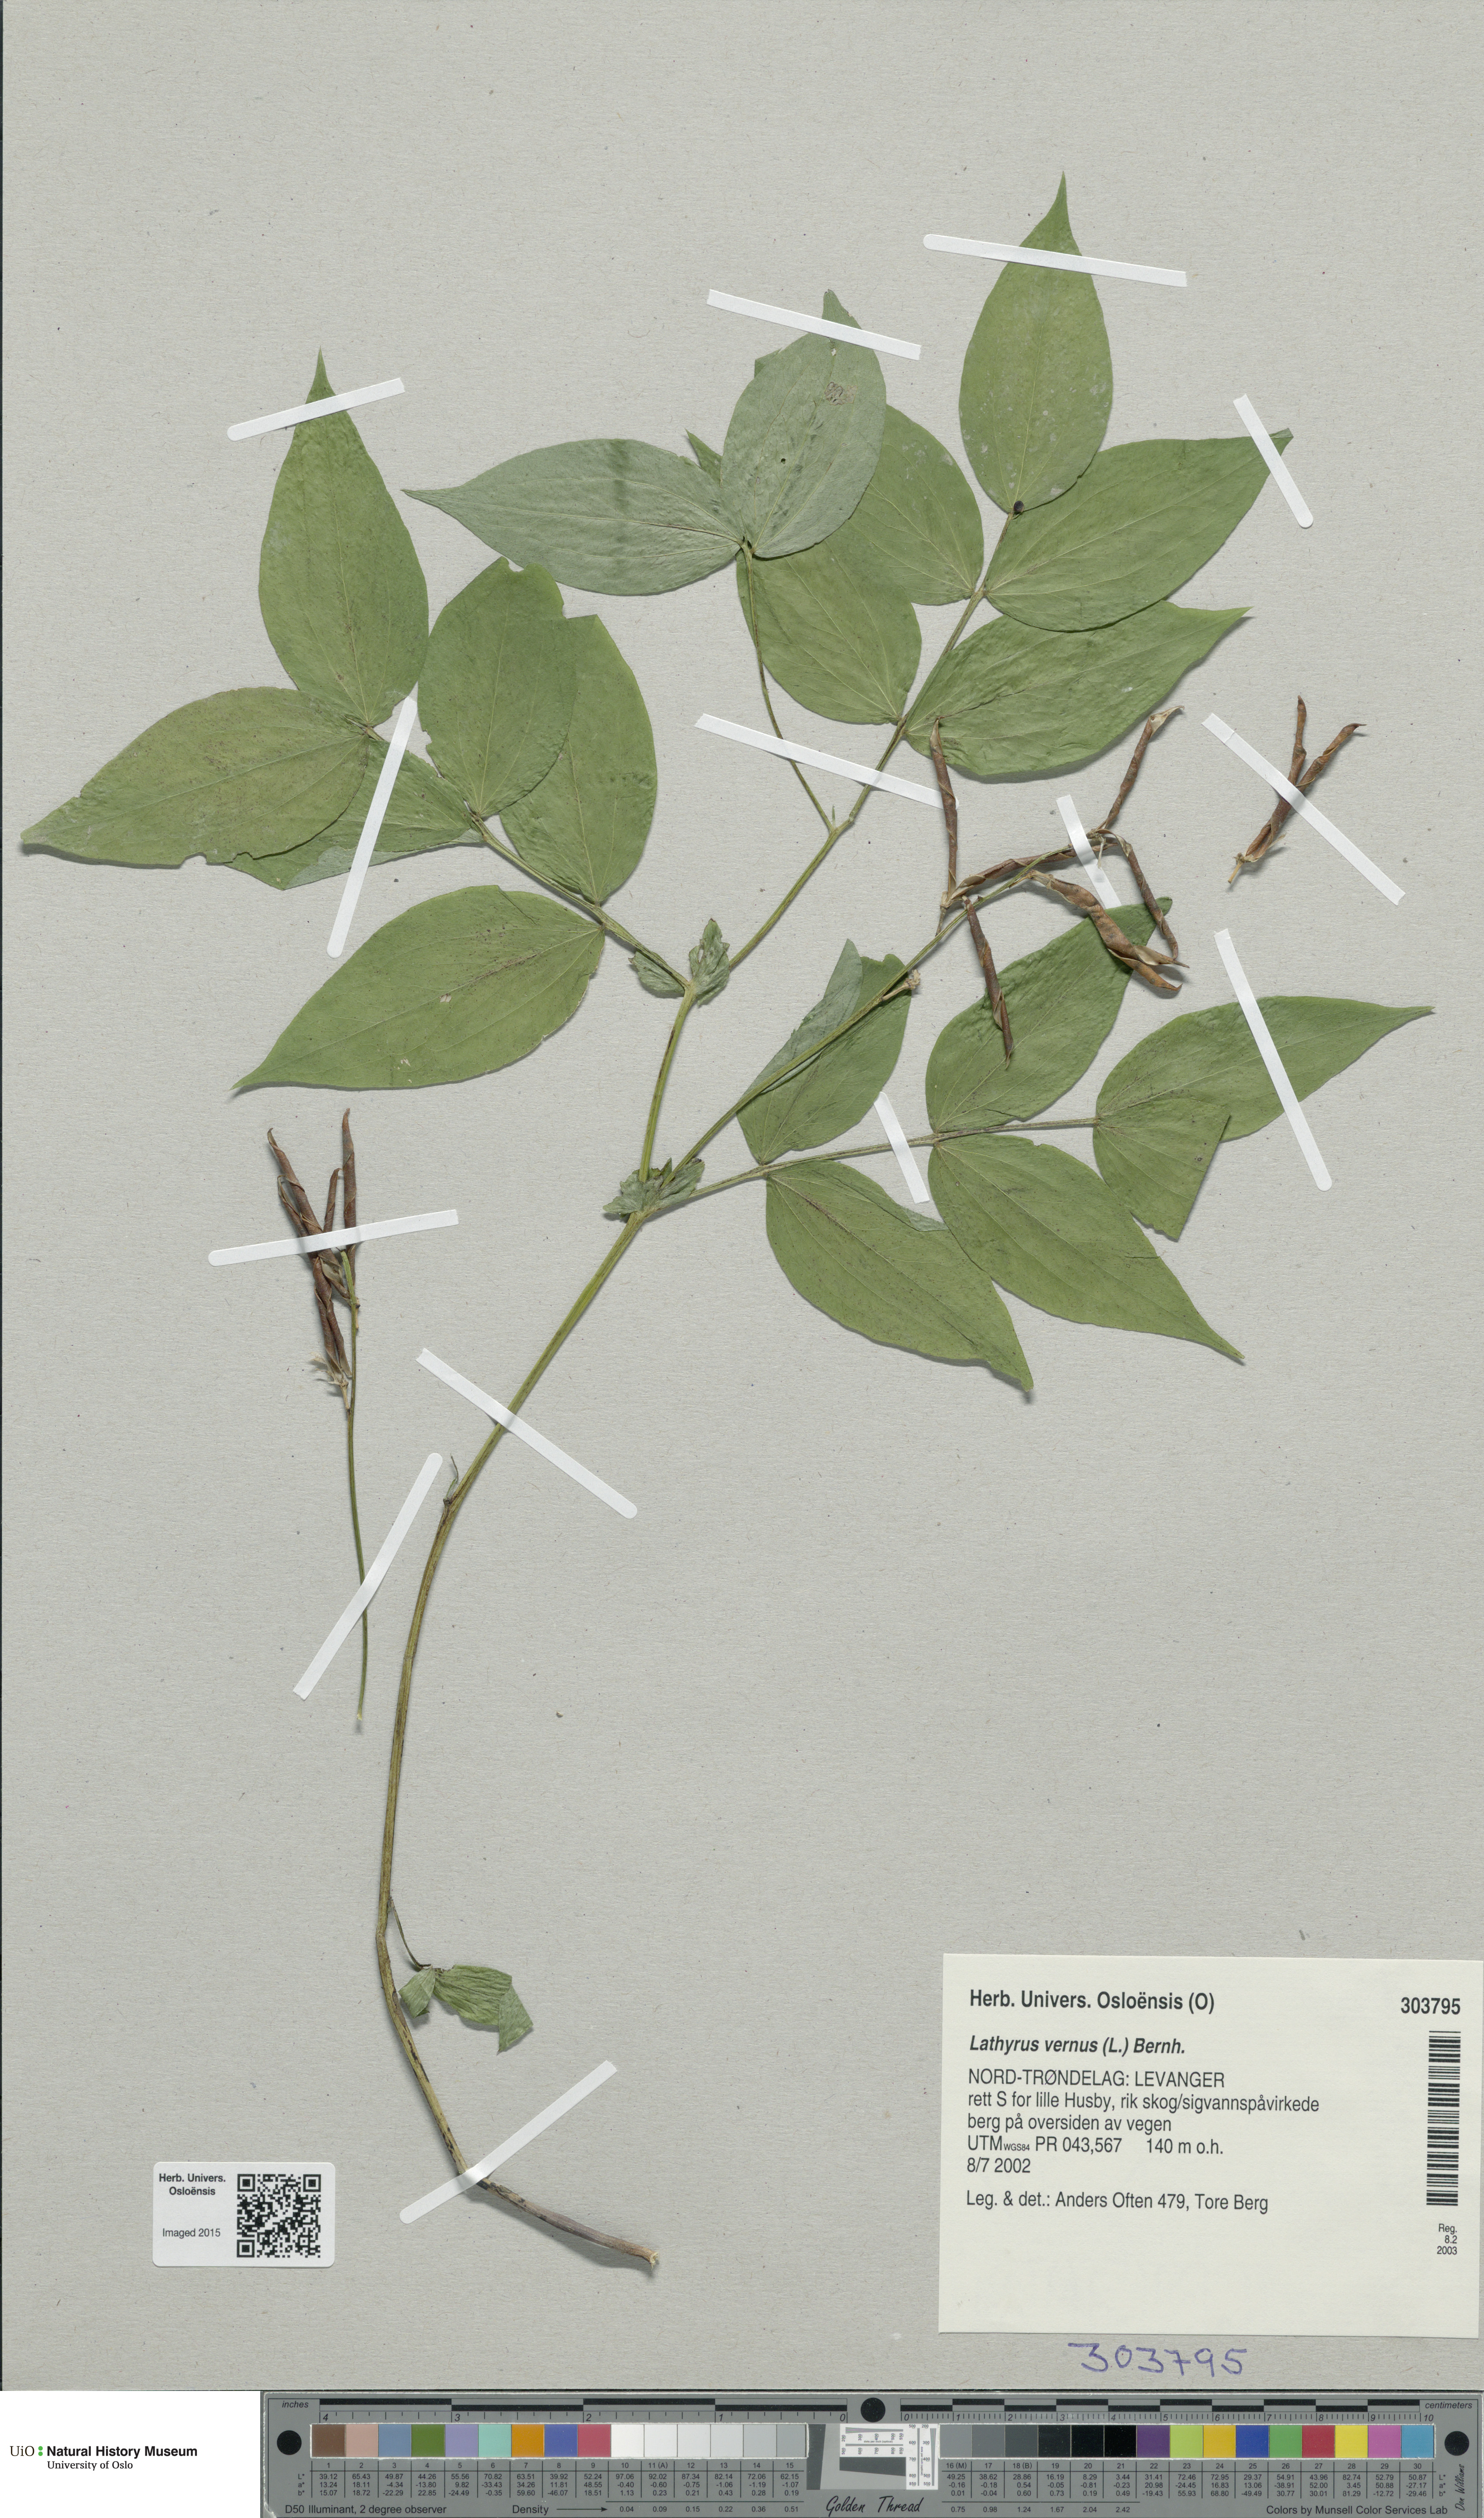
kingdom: Plantae
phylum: Tracheophyta
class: Magnoliopsida
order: Fabales
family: Fabaceae
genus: Lathyrus
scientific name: Lathyrus vernus
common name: Spring pea
